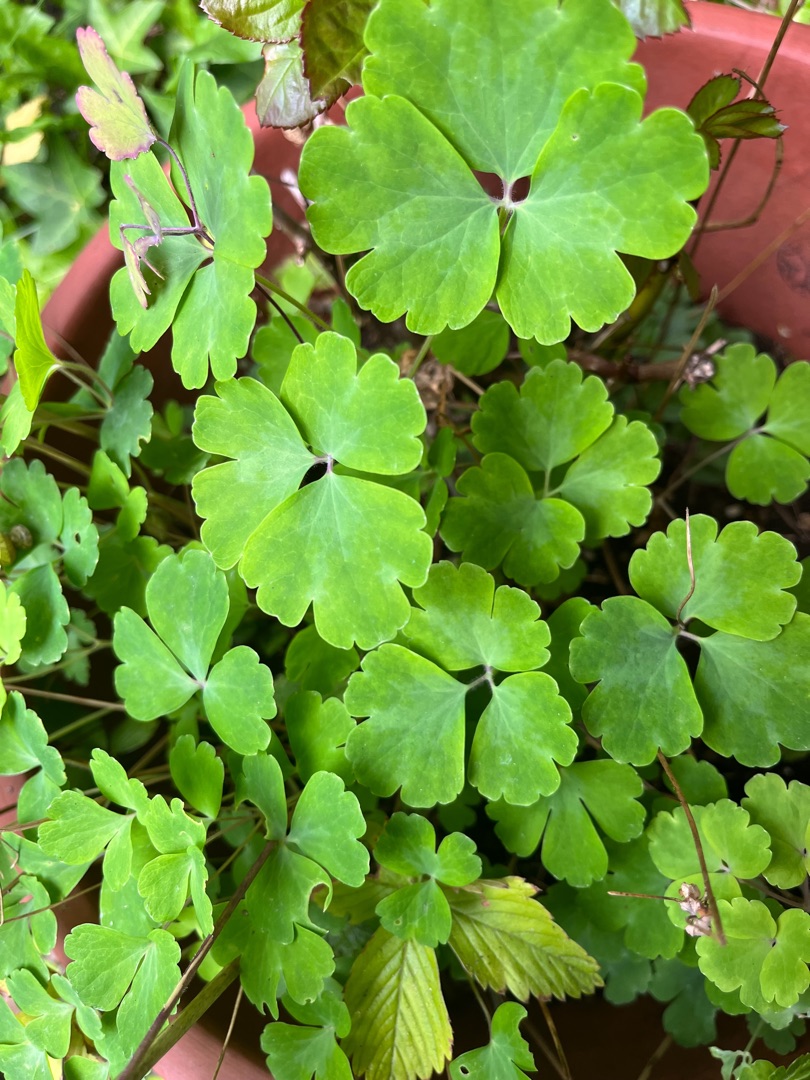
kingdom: Plantae
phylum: Tracheophyta
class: Magnoliopsida
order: Ranunculales
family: Ranunculaceae
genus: Aquilegia
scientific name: Aquilegia vulgaris
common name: Akeleje
